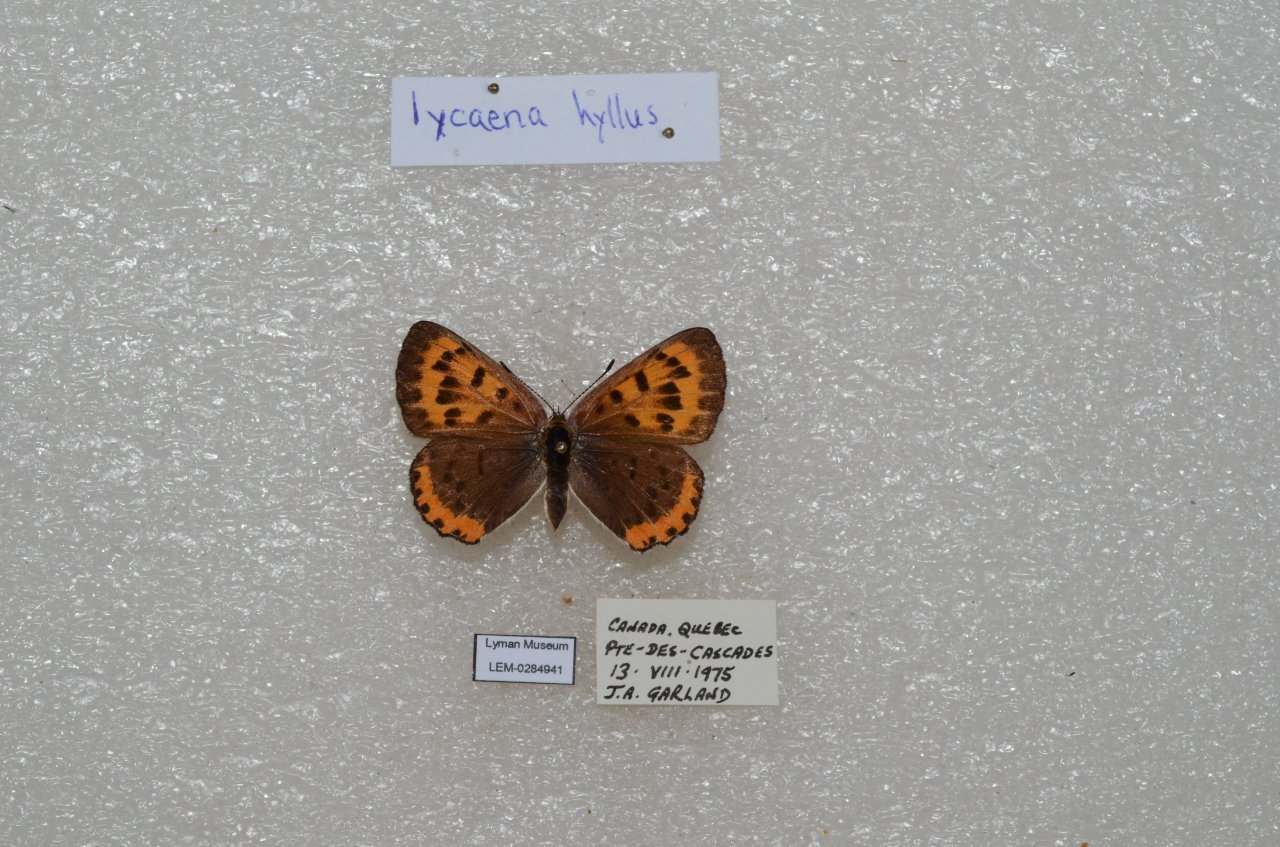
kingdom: Animalia
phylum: Arthropoda
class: Insecta
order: Lepidoptera
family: Sesiidae
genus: Sesia
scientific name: Sesia Lycaena hyllus
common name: Bronze Copper
